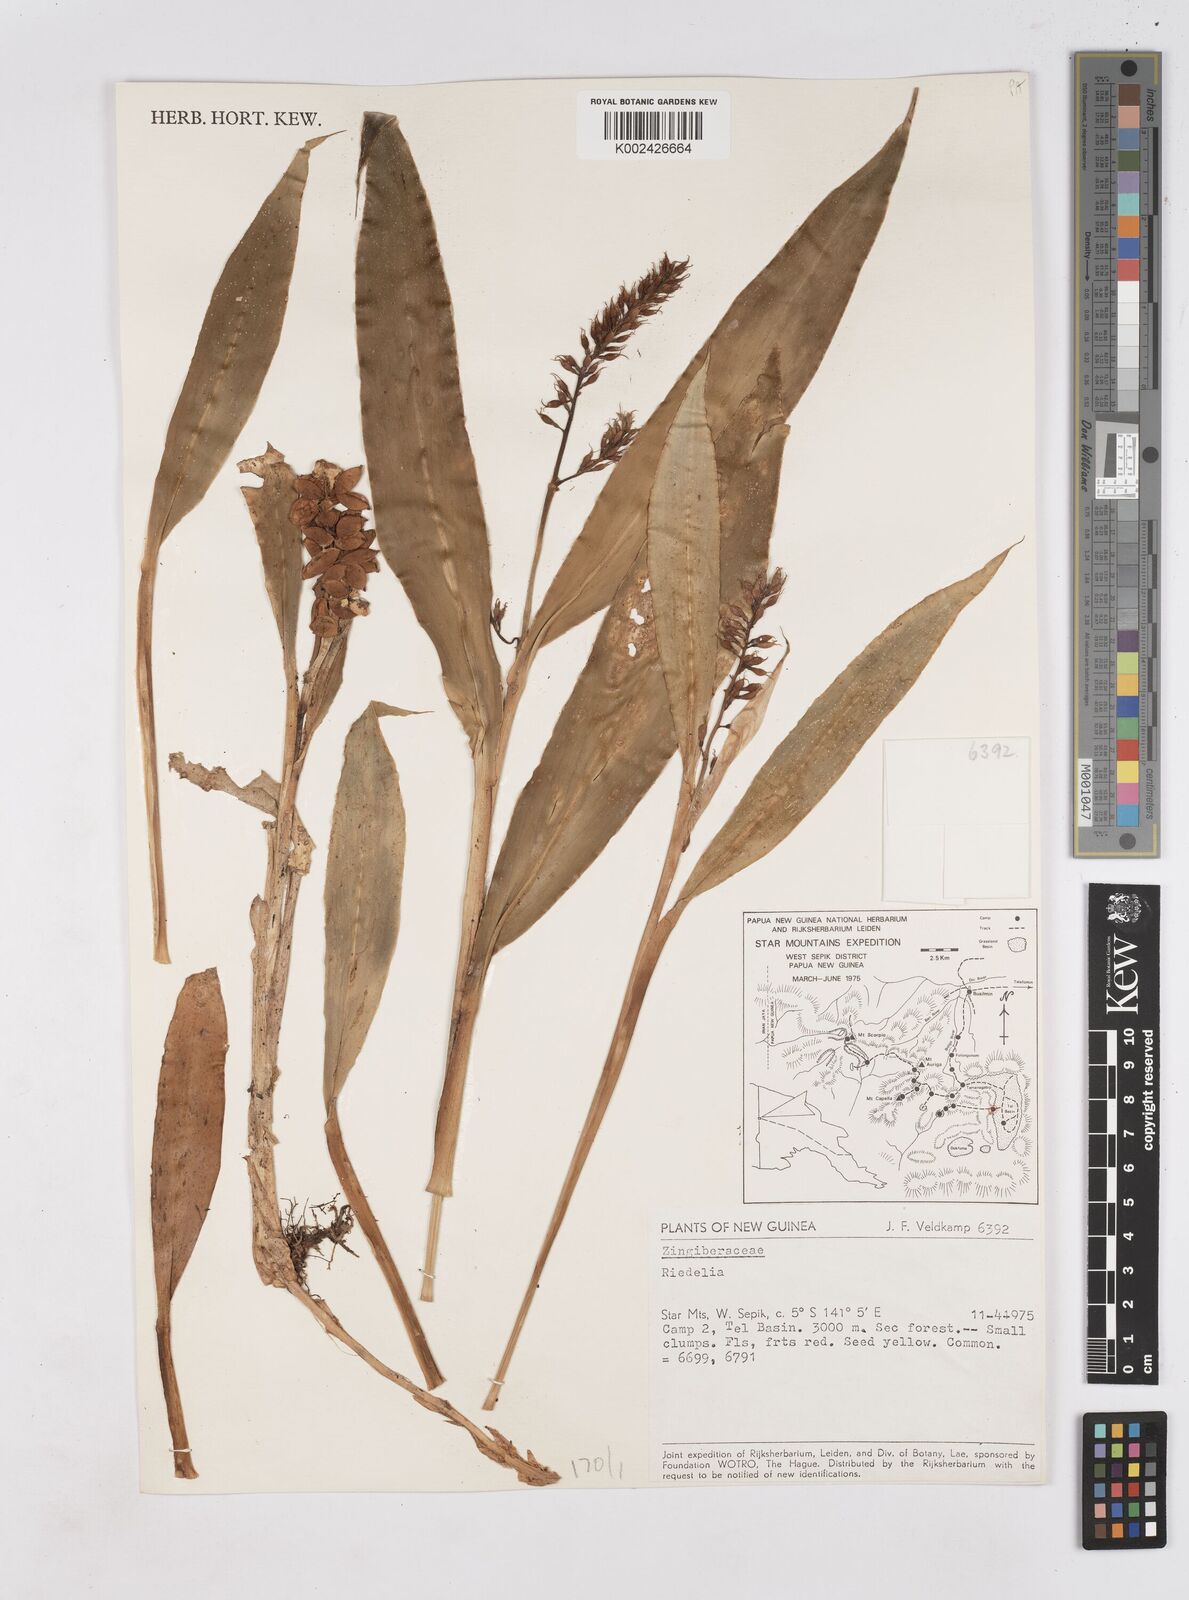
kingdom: Plantae
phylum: Tracheophyta
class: Liliopsida
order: Zingiberales
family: Zingiberaceae
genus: Riedelia
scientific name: Riedelia
